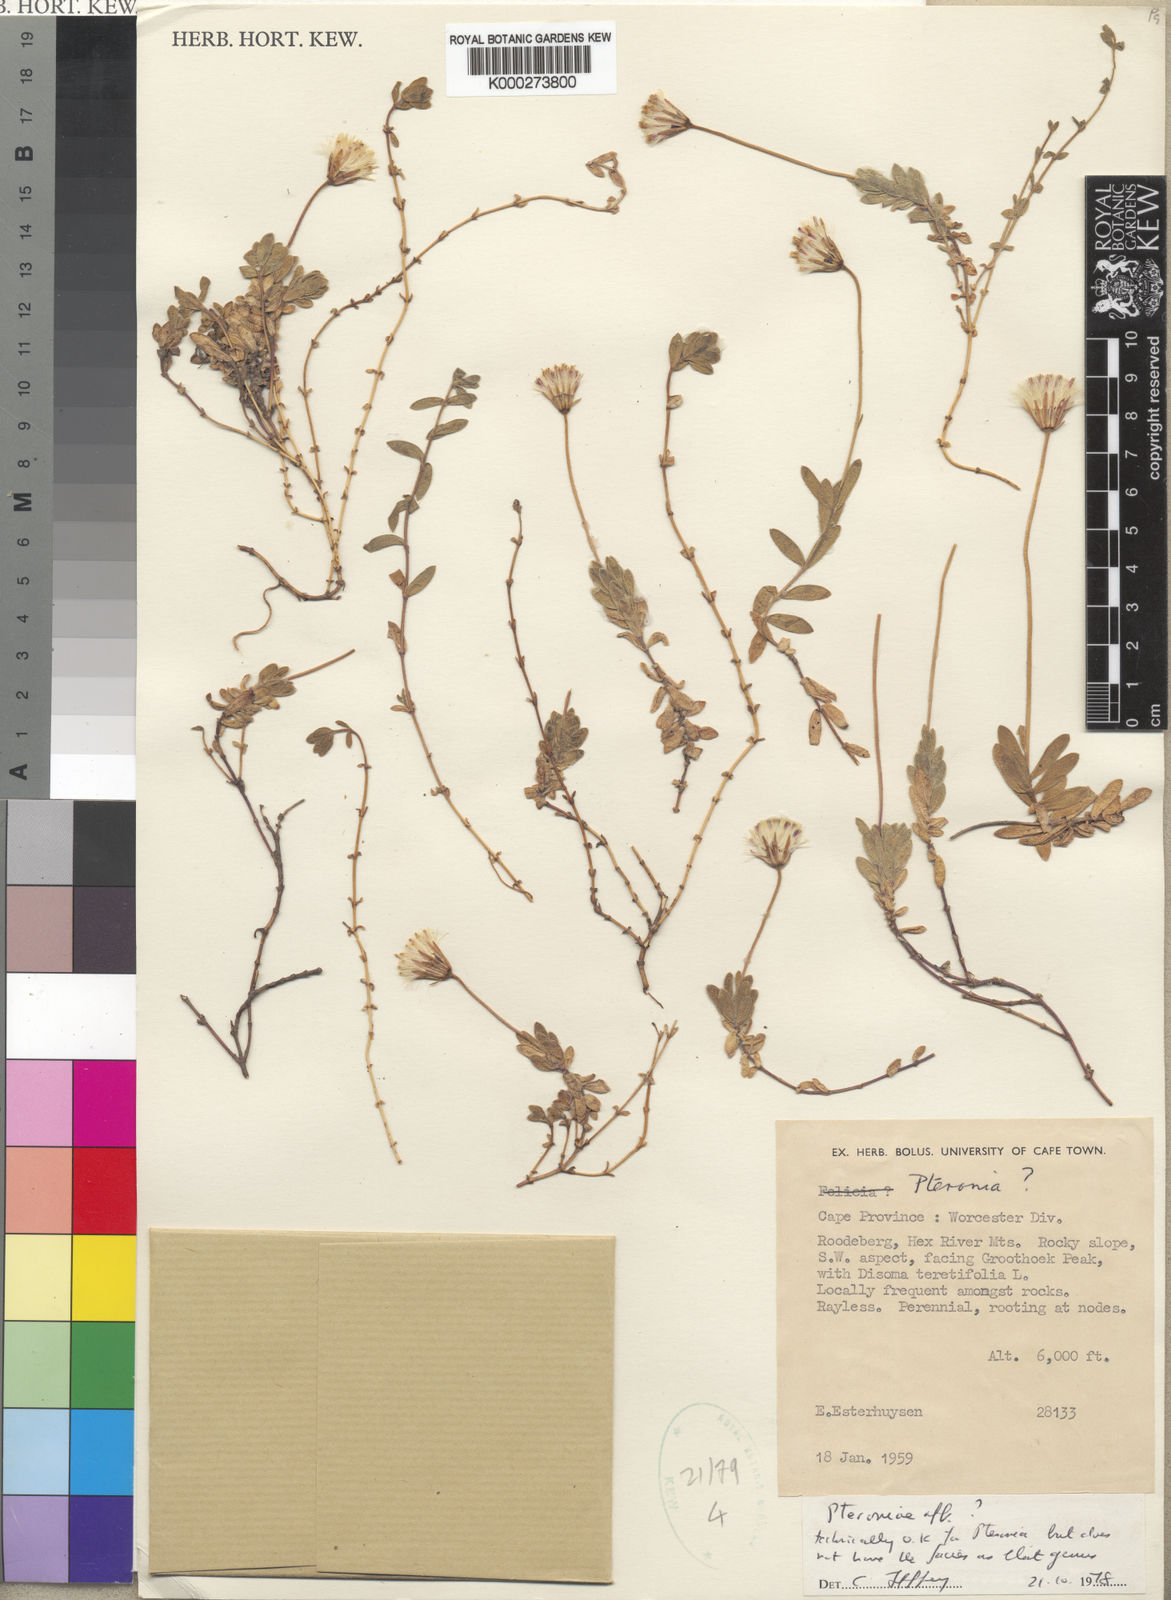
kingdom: Plantae
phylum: Tracheophyta
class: Magnoliopsida
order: Asterales
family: Asteraceae
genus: Roodebergia
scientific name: Roodebergia kitamurana
